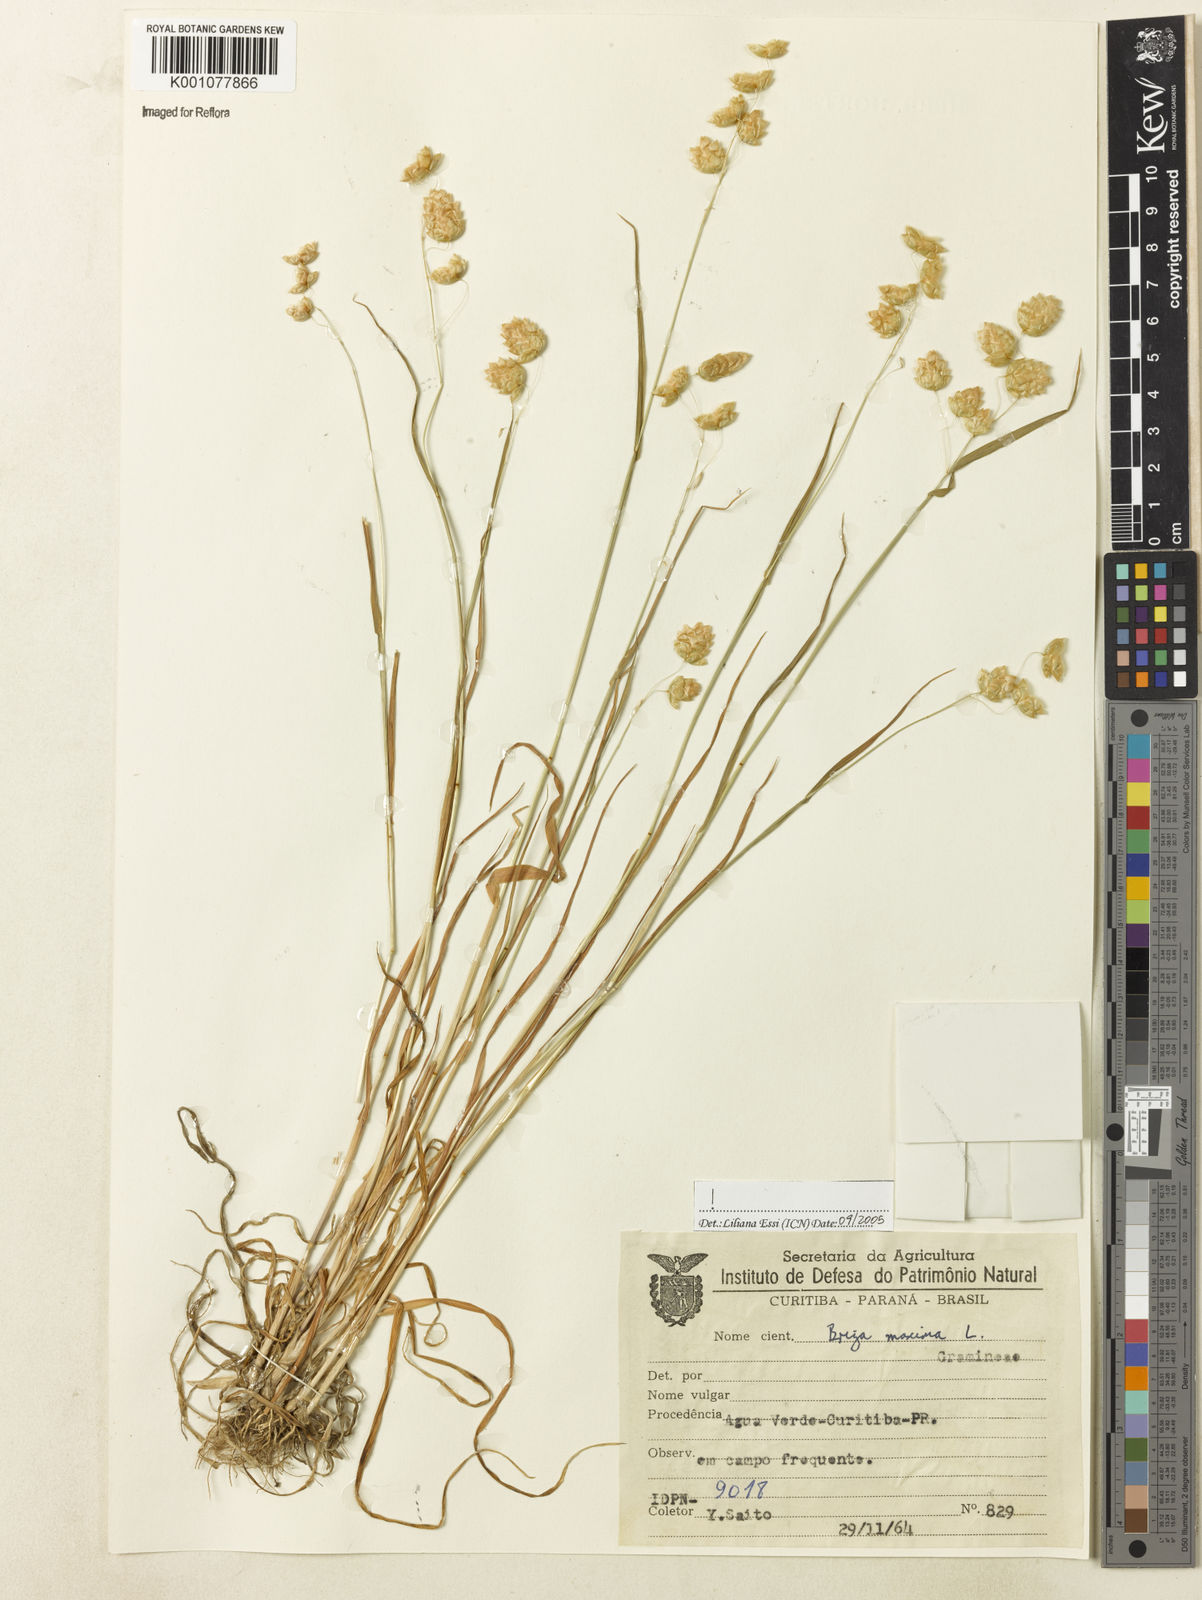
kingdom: Plantae
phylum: Tracheophyta
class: Liliopsida
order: Poales
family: Poaceae
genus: Briza
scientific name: Briza maxima
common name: Big quakinggrass
